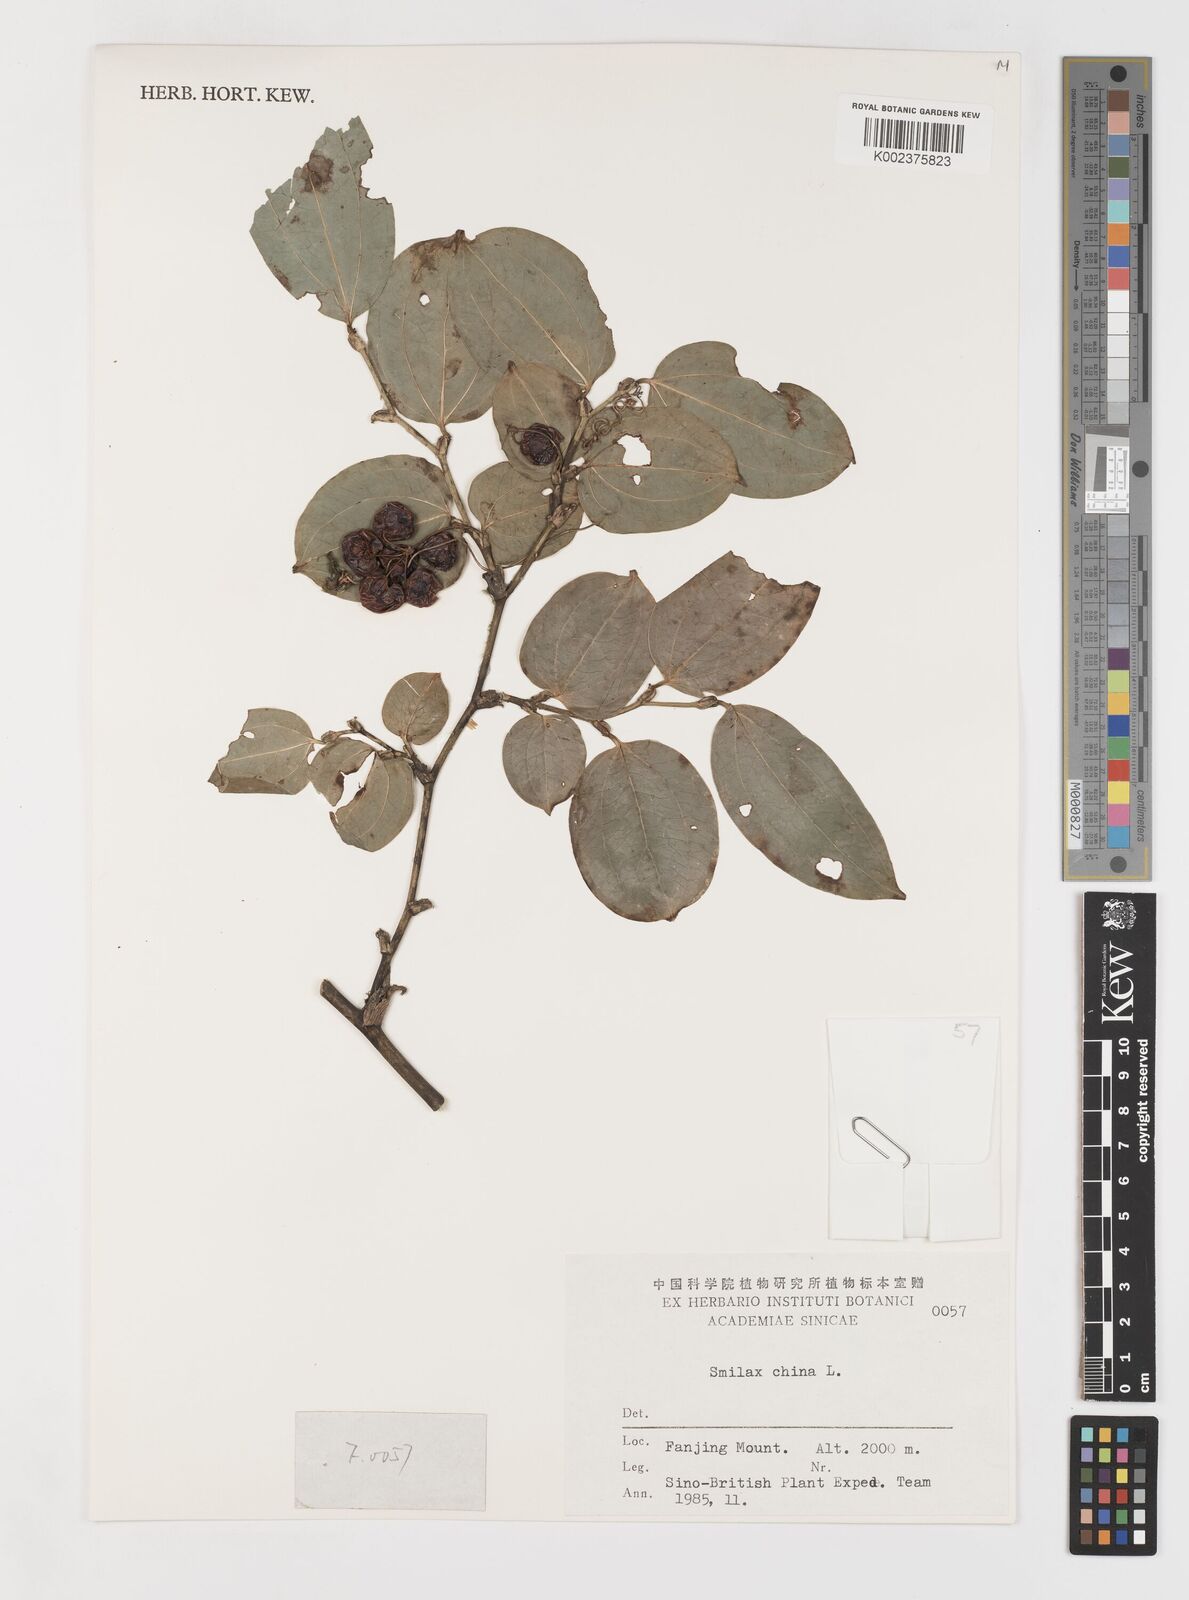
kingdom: Plantae
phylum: Tracheophyta
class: Liliopsida
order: Liliales
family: Smilacaceae
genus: Smilax
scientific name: Smilax china
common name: Chinaroot
